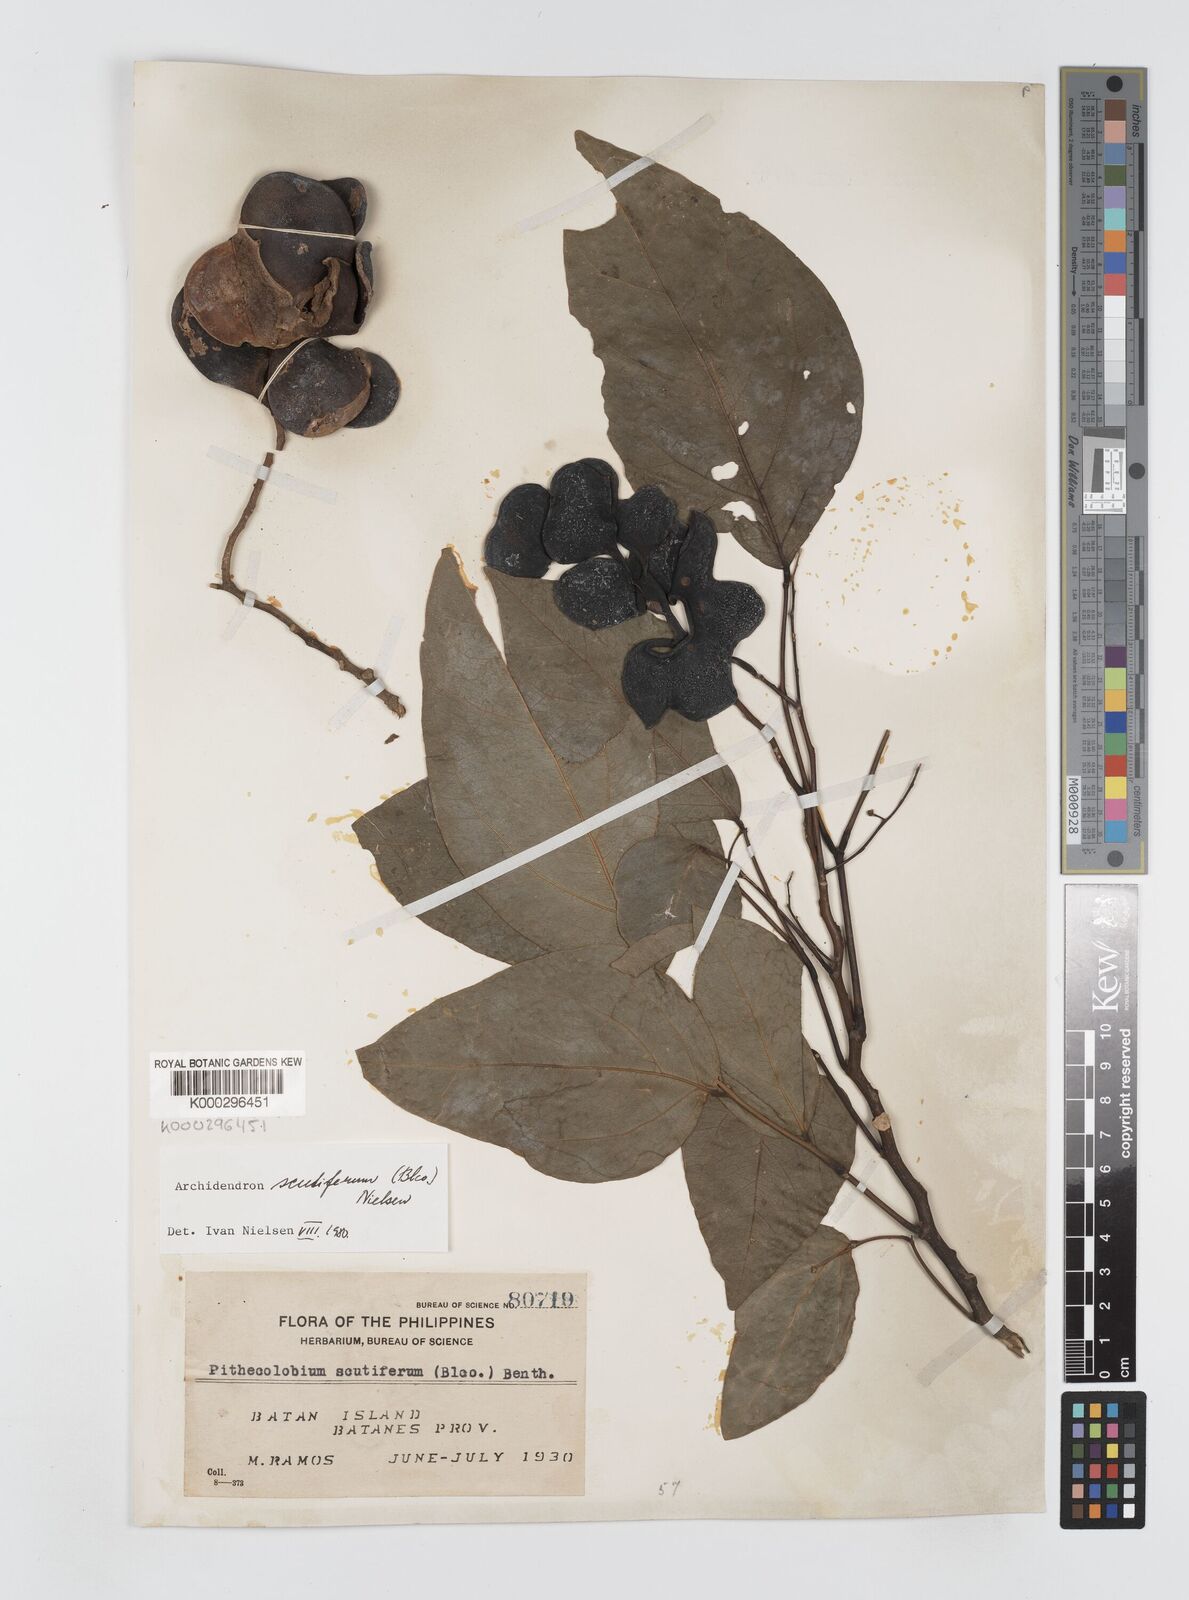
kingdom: Plantae
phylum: Tracheophyta
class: Magnoliopsida
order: Fabales
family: Fabaceae
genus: Archidendron
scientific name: Archidendron scutiferum
